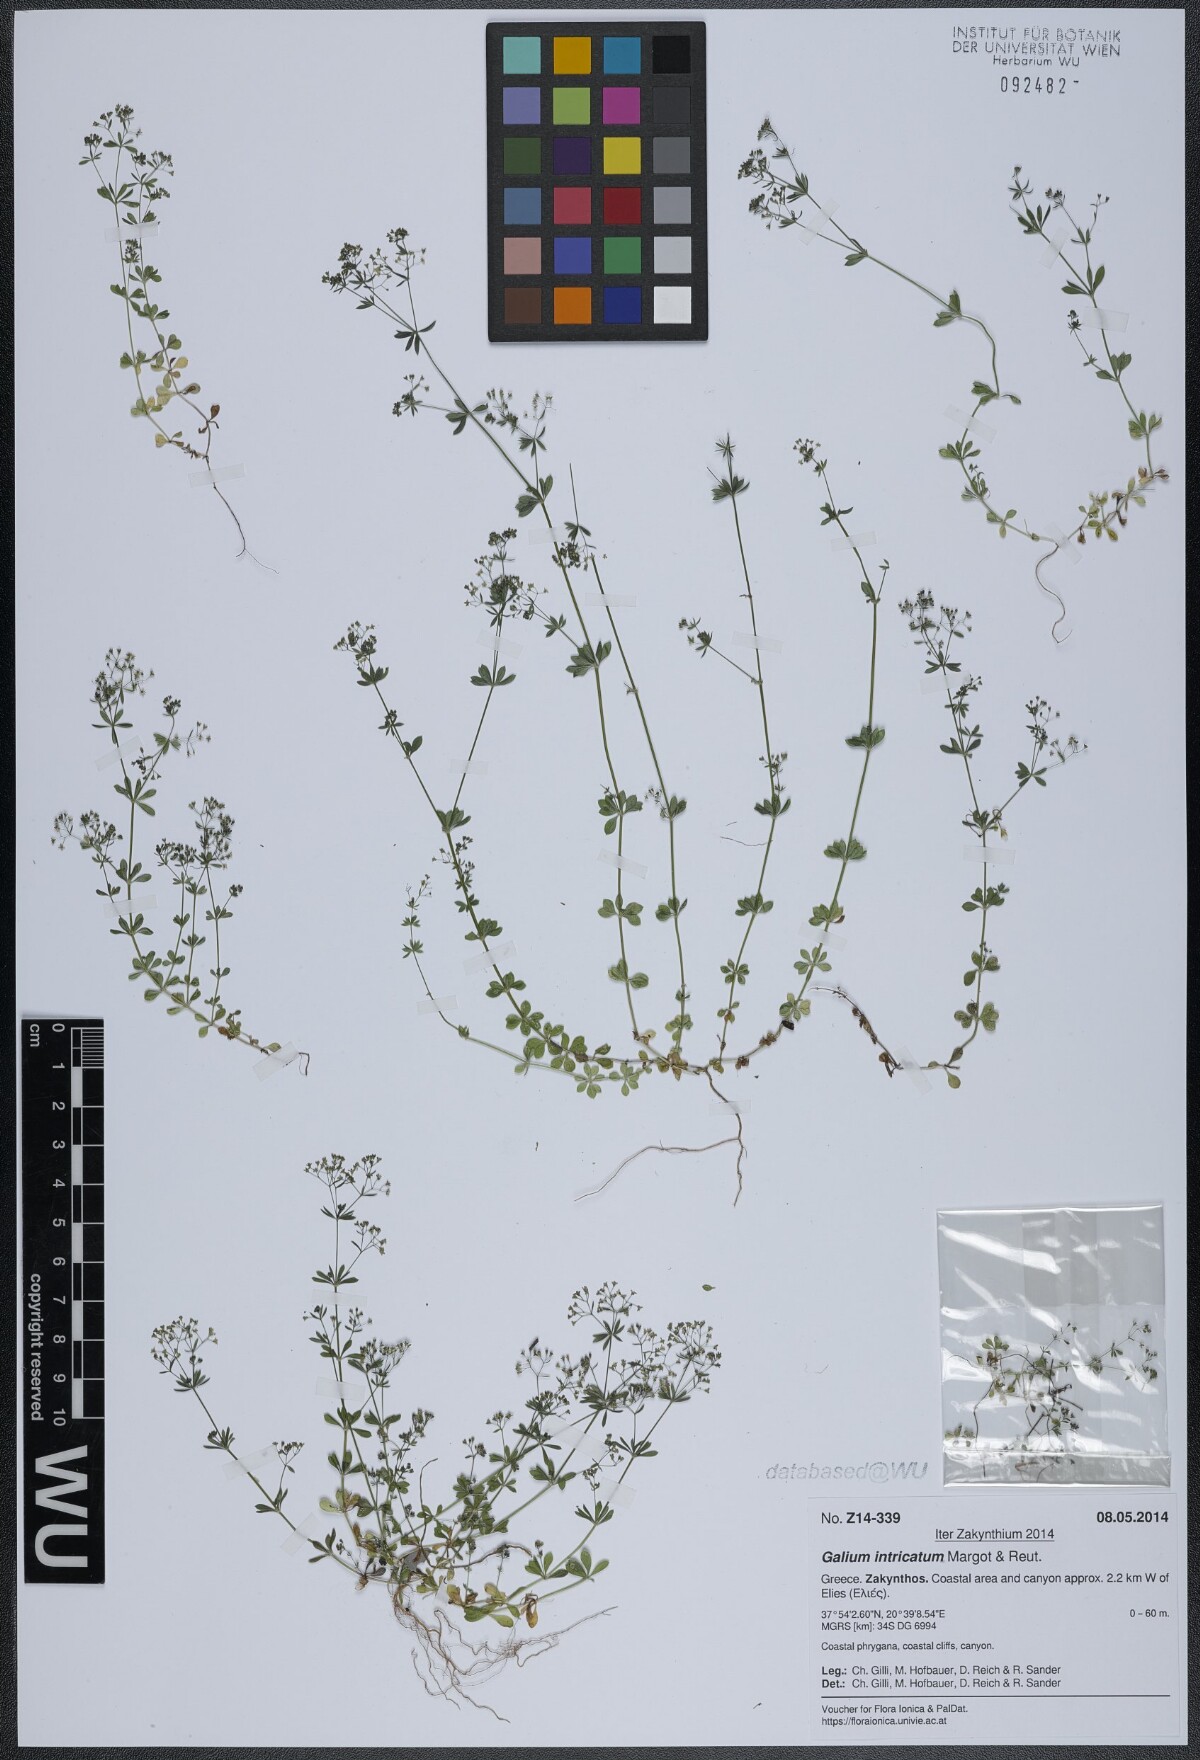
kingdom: Plantae
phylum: Tracheophyta
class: Magnoliopsida
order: Gentianales
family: Rubiaceae
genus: Galium
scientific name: Galium intricatum
